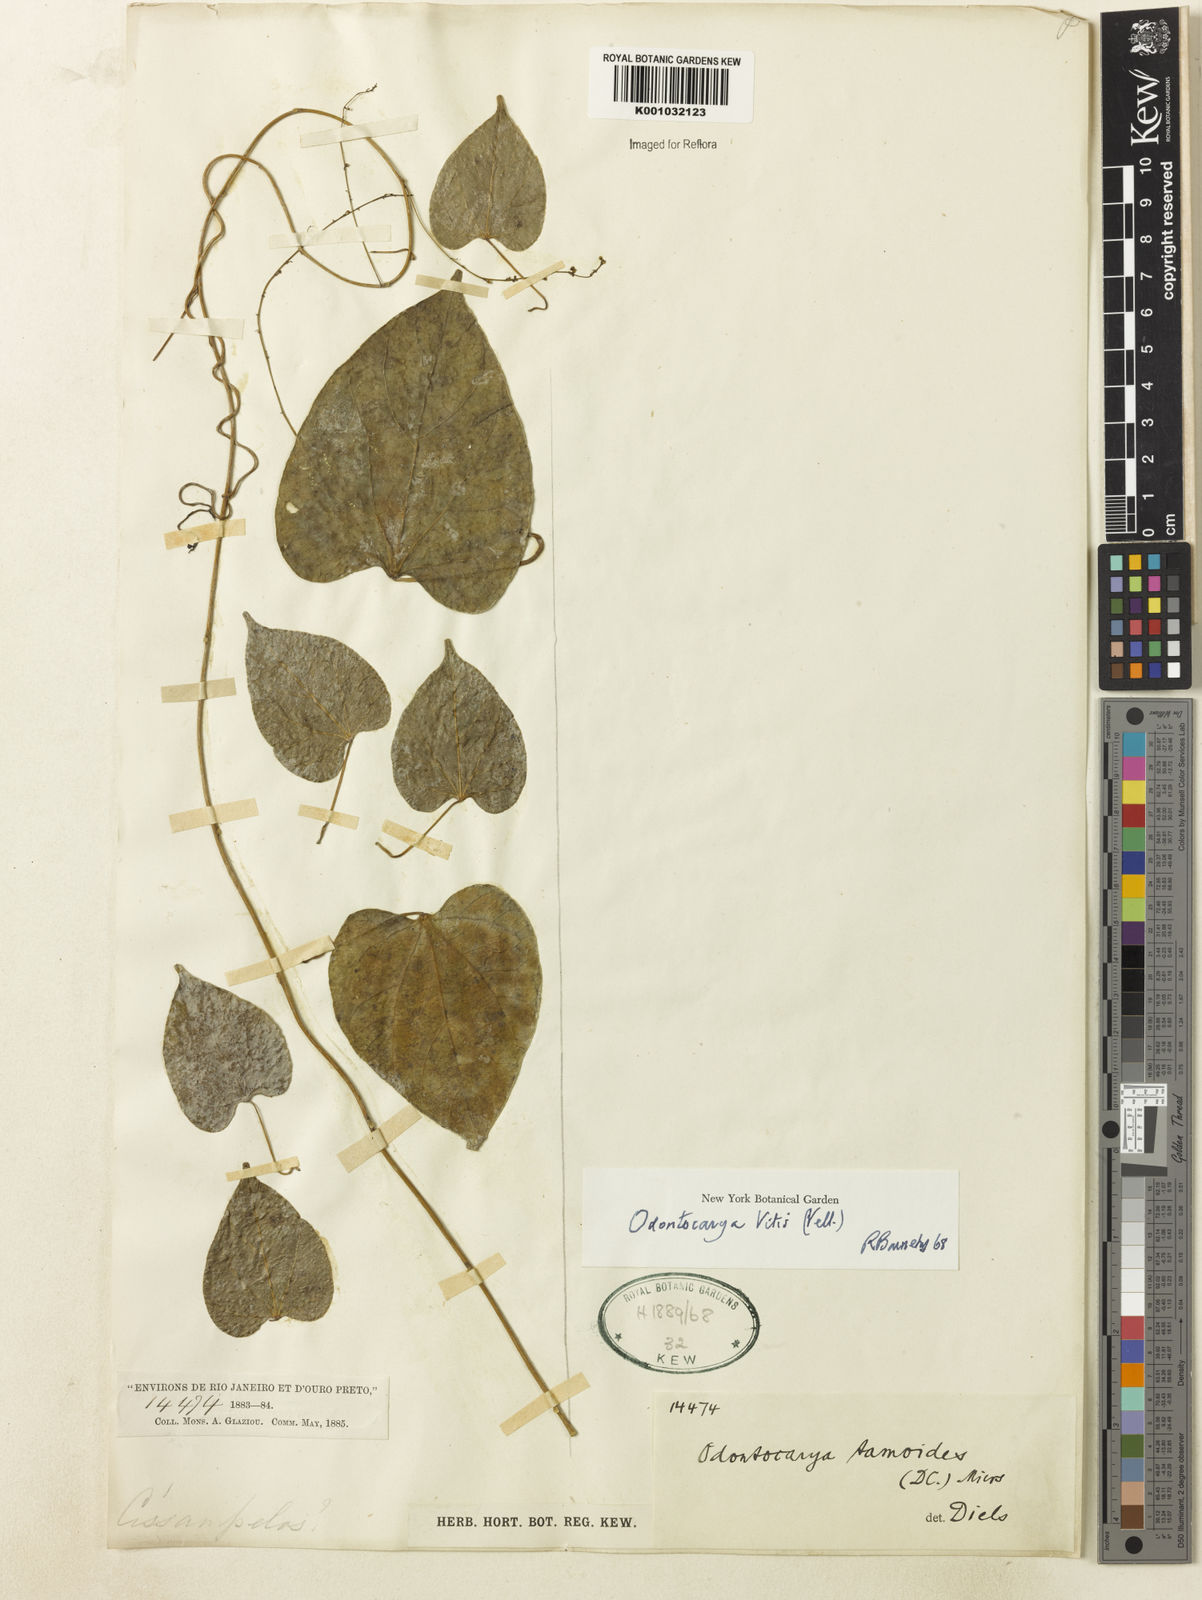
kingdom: Plantae
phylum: Tracheophyta
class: Magnoliopsida
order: Ranunculales
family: Menispermaceae
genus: Odontocarya
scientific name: Odontocarya
